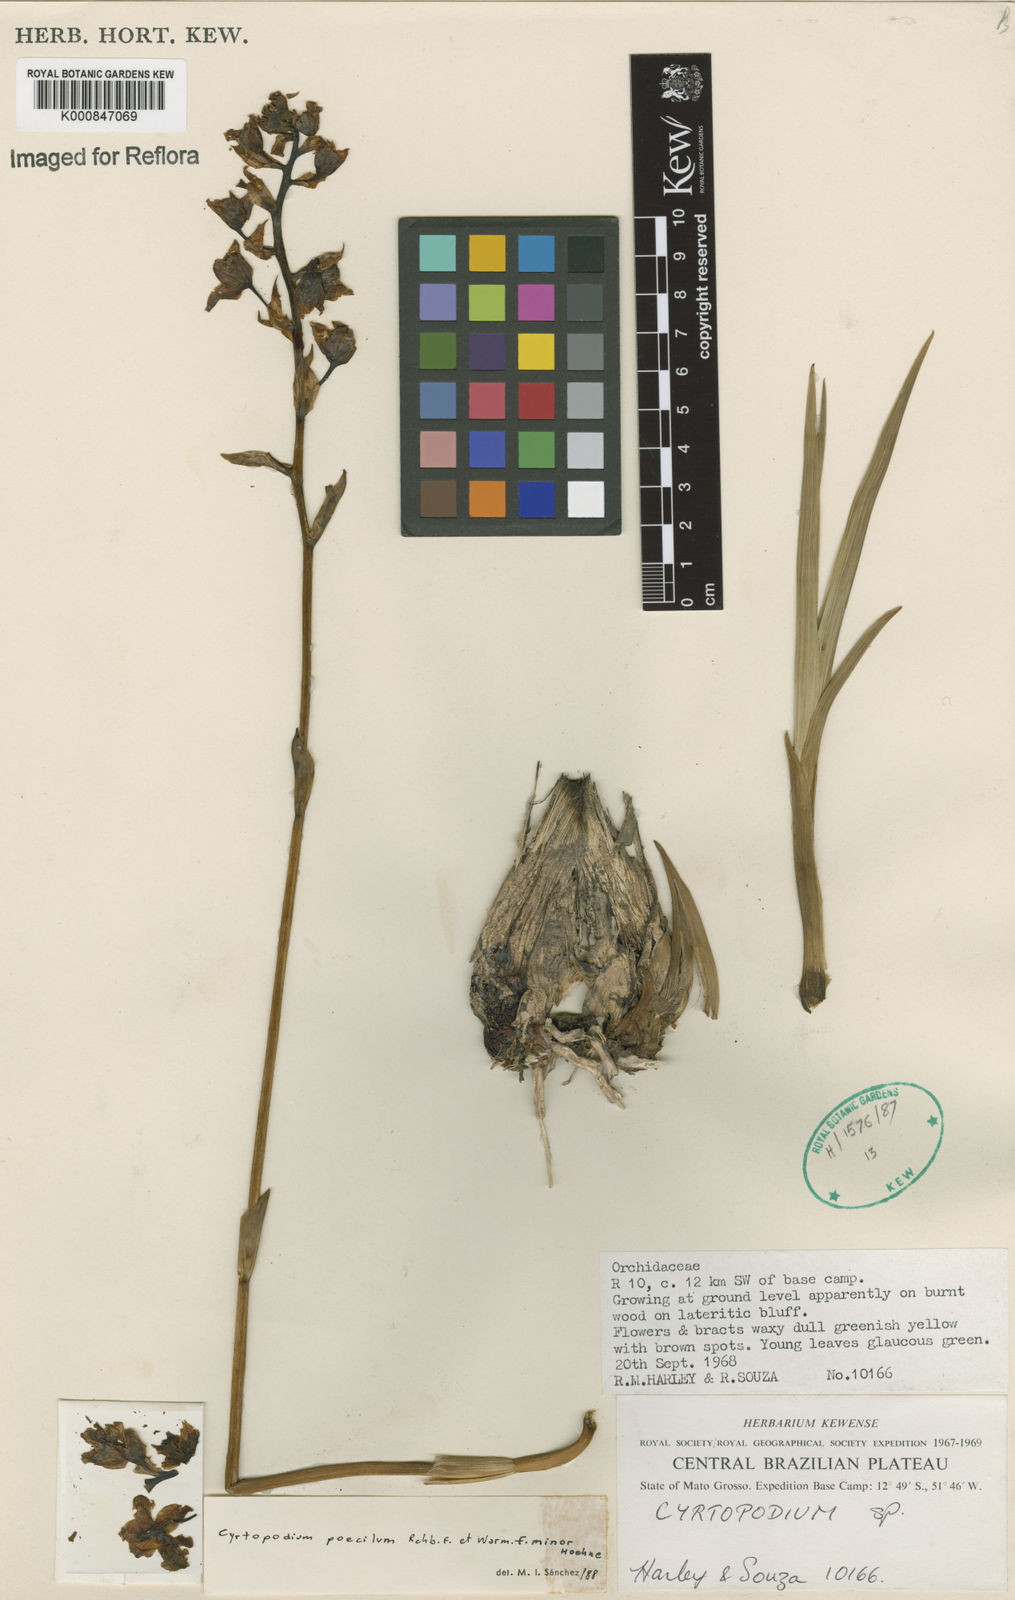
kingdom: Plantae
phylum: Tracheophyta
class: Liliopsida
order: Asparagales
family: Orchidaceae
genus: Cyrtopodium
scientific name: Cyrtopodium poecilum
